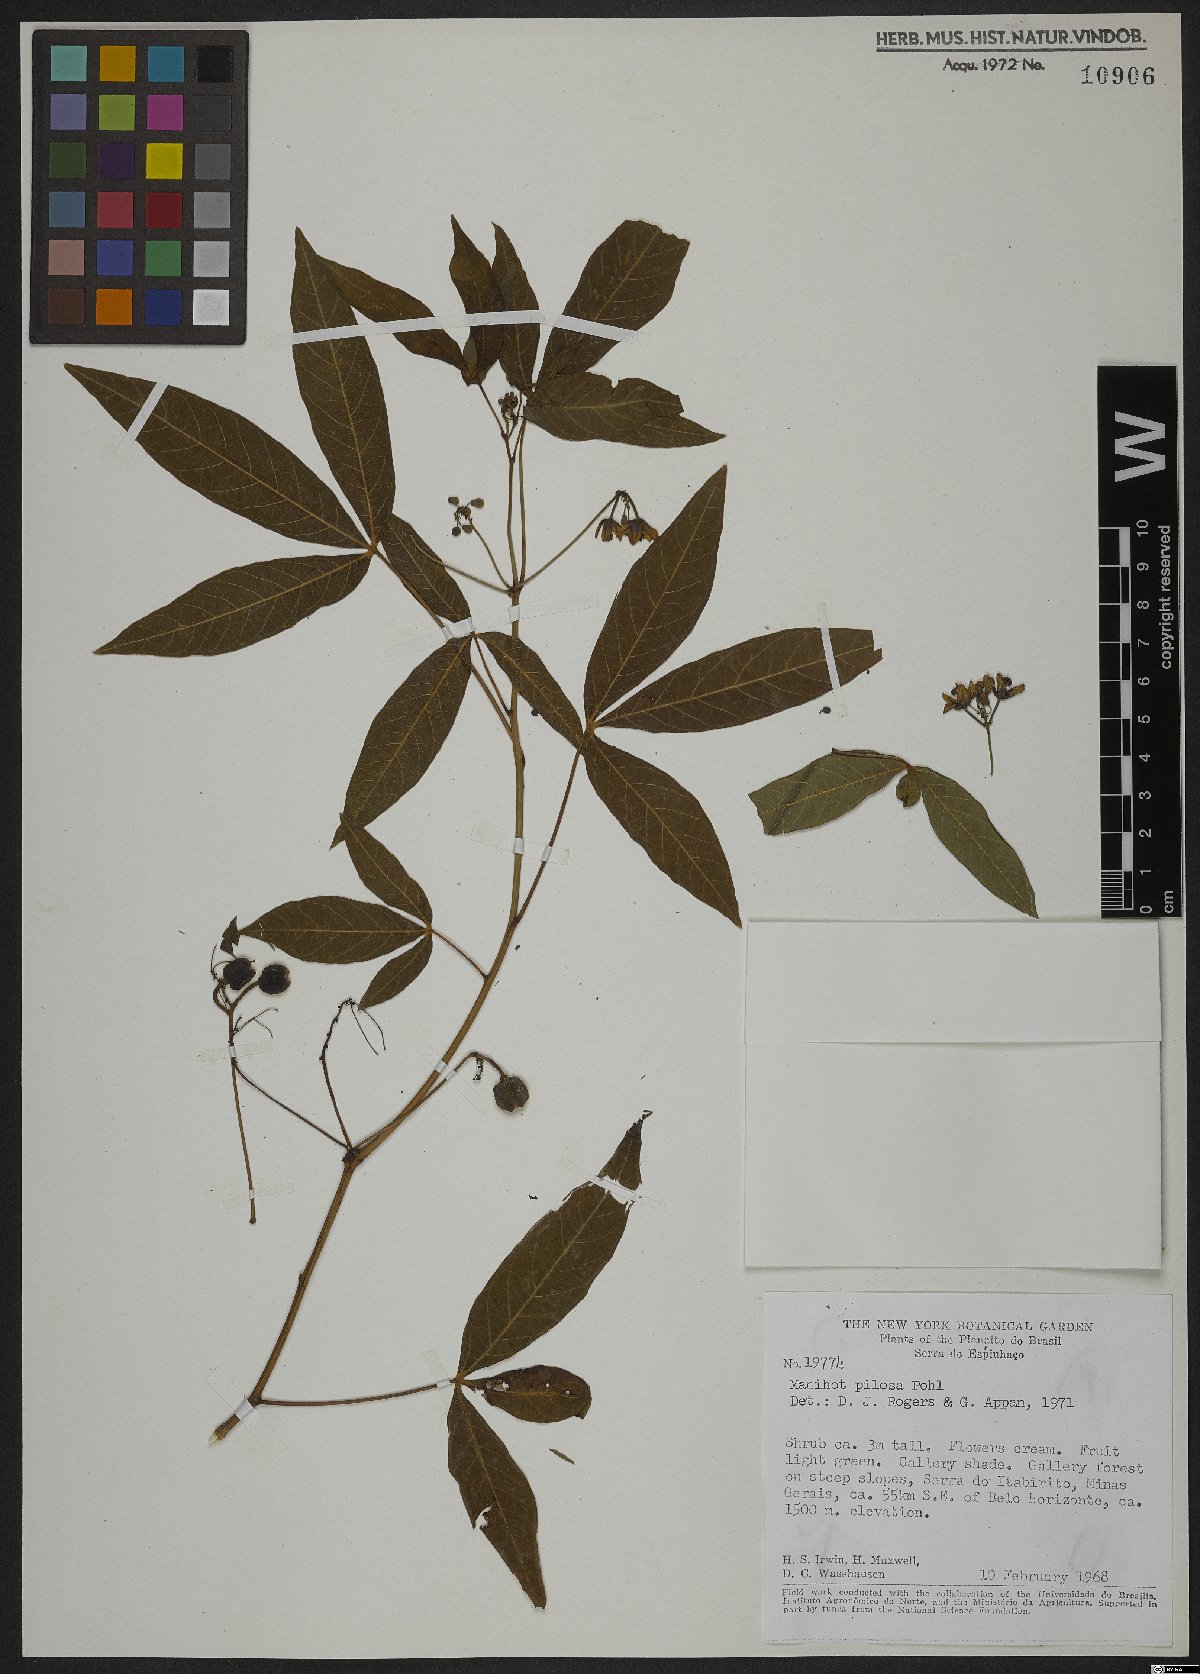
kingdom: Plantae
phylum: Tracheophyta
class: Magnoliopsida
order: Malpighiales
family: Euphorbiaceae
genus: Manihot
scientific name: Manihot pilosa
